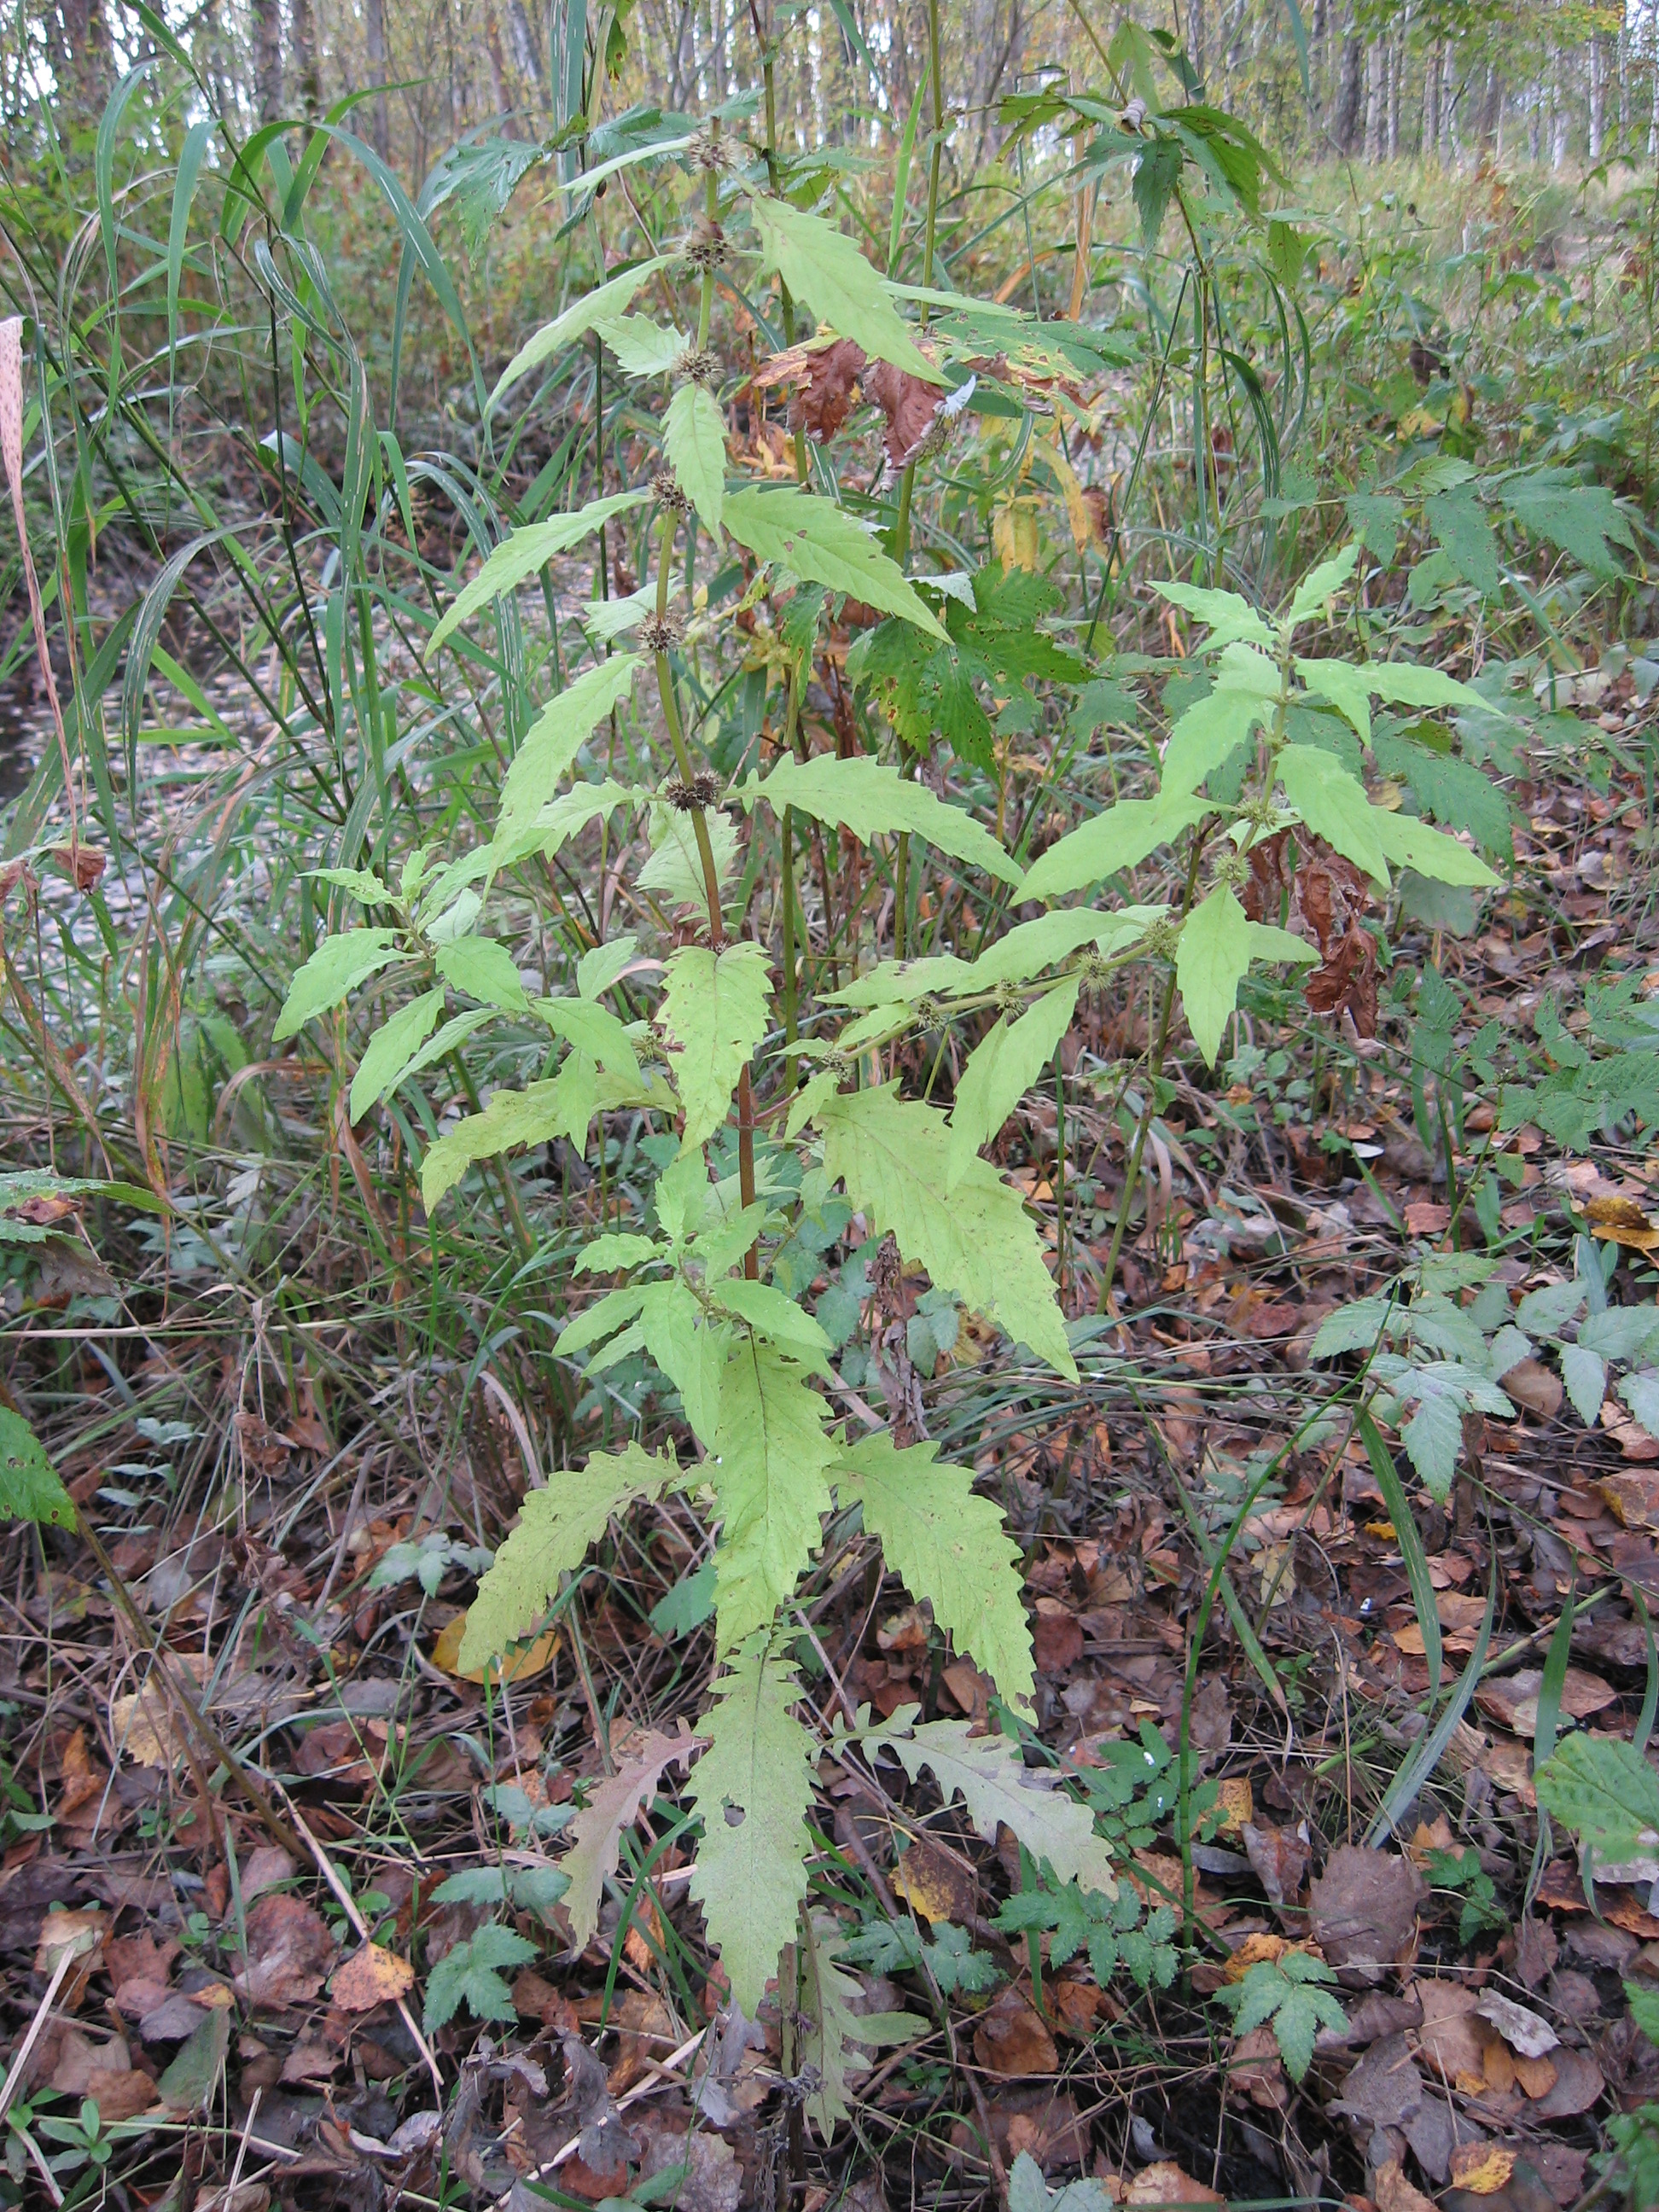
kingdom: Plantae
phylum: Tracheophyta
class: Magnoliopsida
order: Lamiales
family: Lamiaceae
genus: Lycopus
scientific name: Lycopus europaeus
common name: European bugleweed
